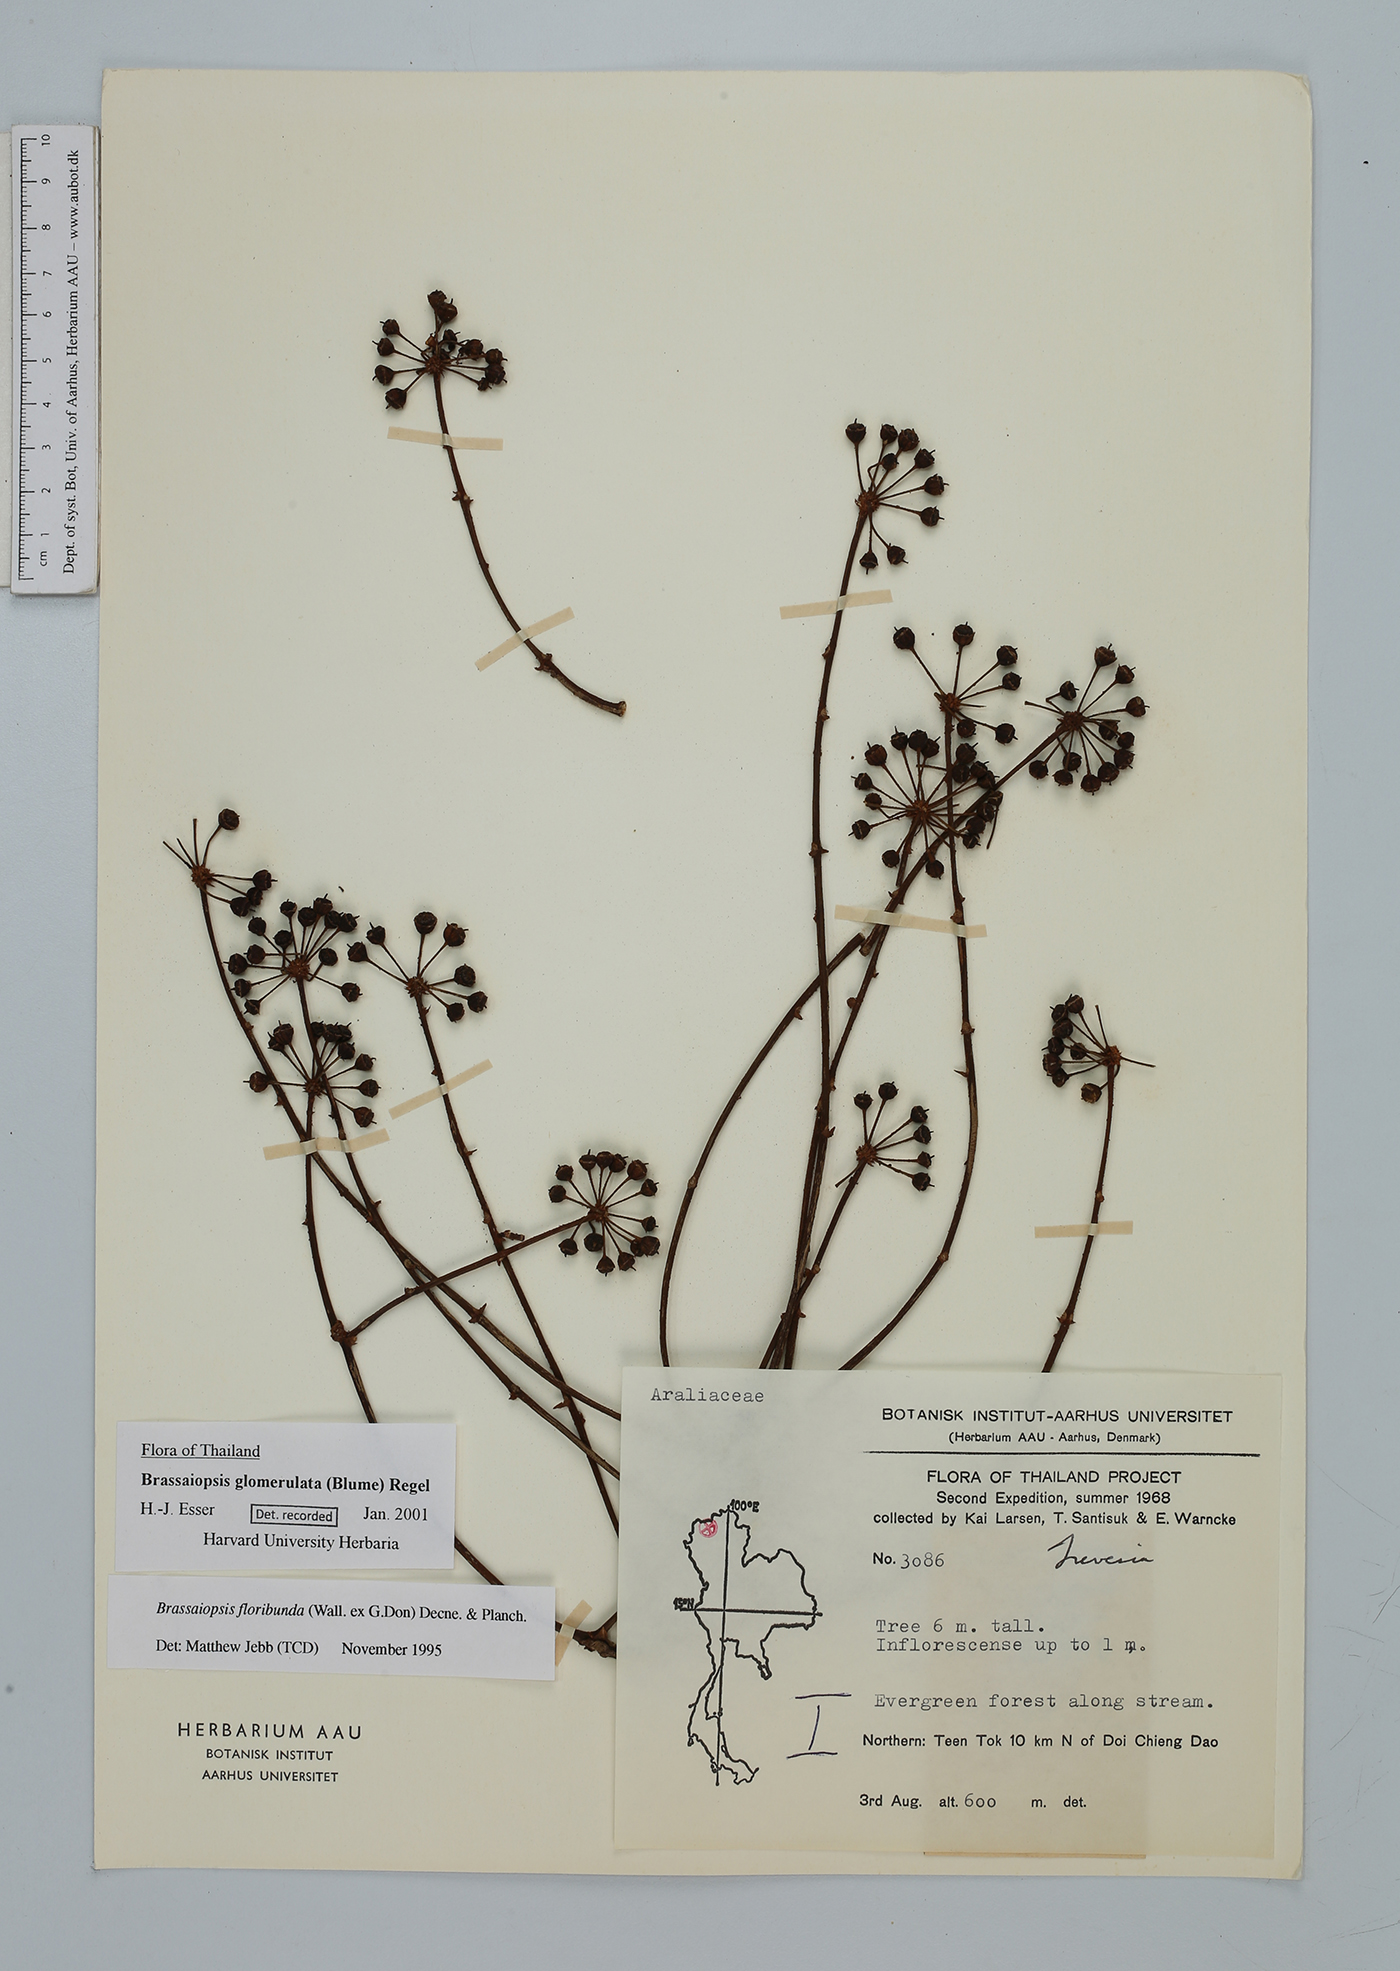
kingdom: Plantae
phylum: Tracheophyta
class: Magnoliopsida
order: Apiales
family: Araliaceae
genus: Brassaiopsis
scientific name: Brassaiopsis glomerulata
